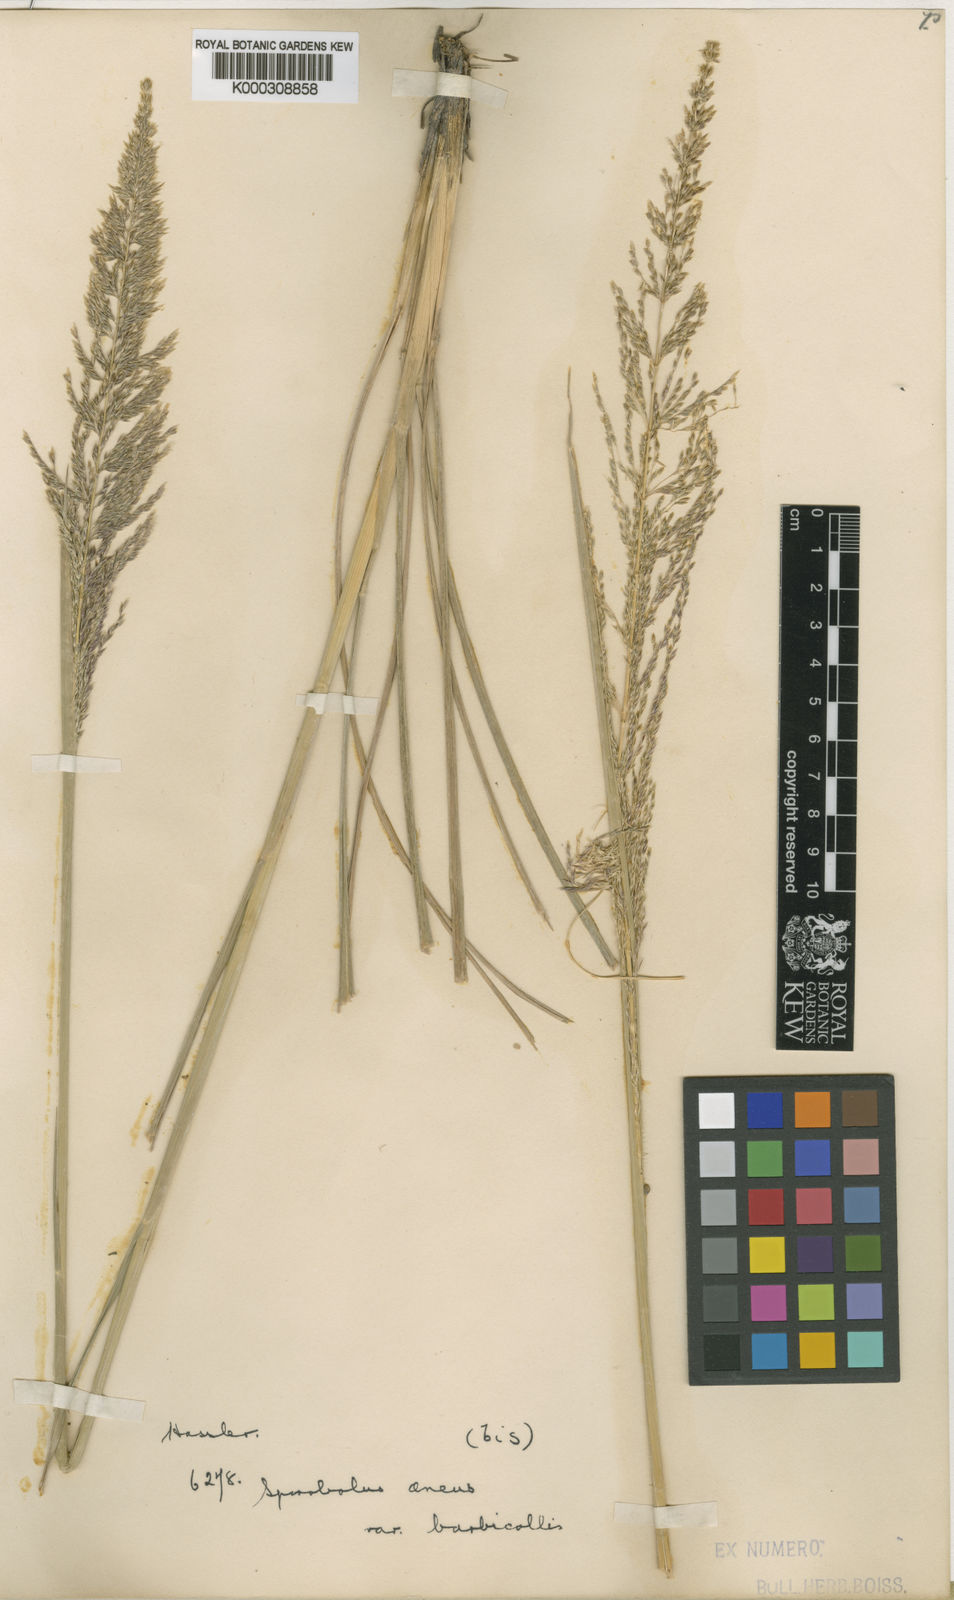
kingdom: Plantae
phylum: Tracheophyta
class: Liliopsida
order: Poales
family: Poaceae
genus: Sporobolus
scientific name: Sporobolus aeneus
